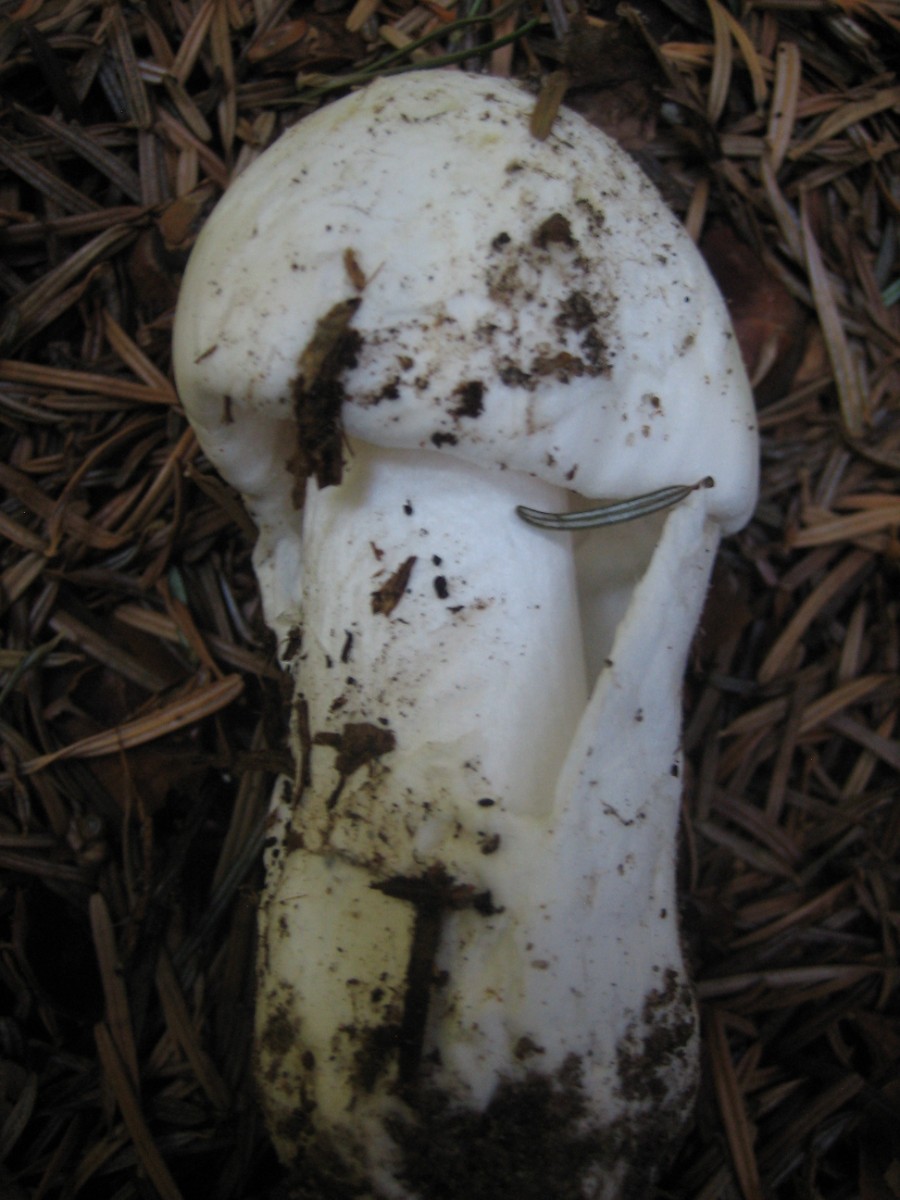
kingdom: Fungi
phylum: Basidiomycota
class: Agaricomycetes
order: Agaricales
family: Amanitaceae
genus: Amanita
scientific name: Amanita phalloides
